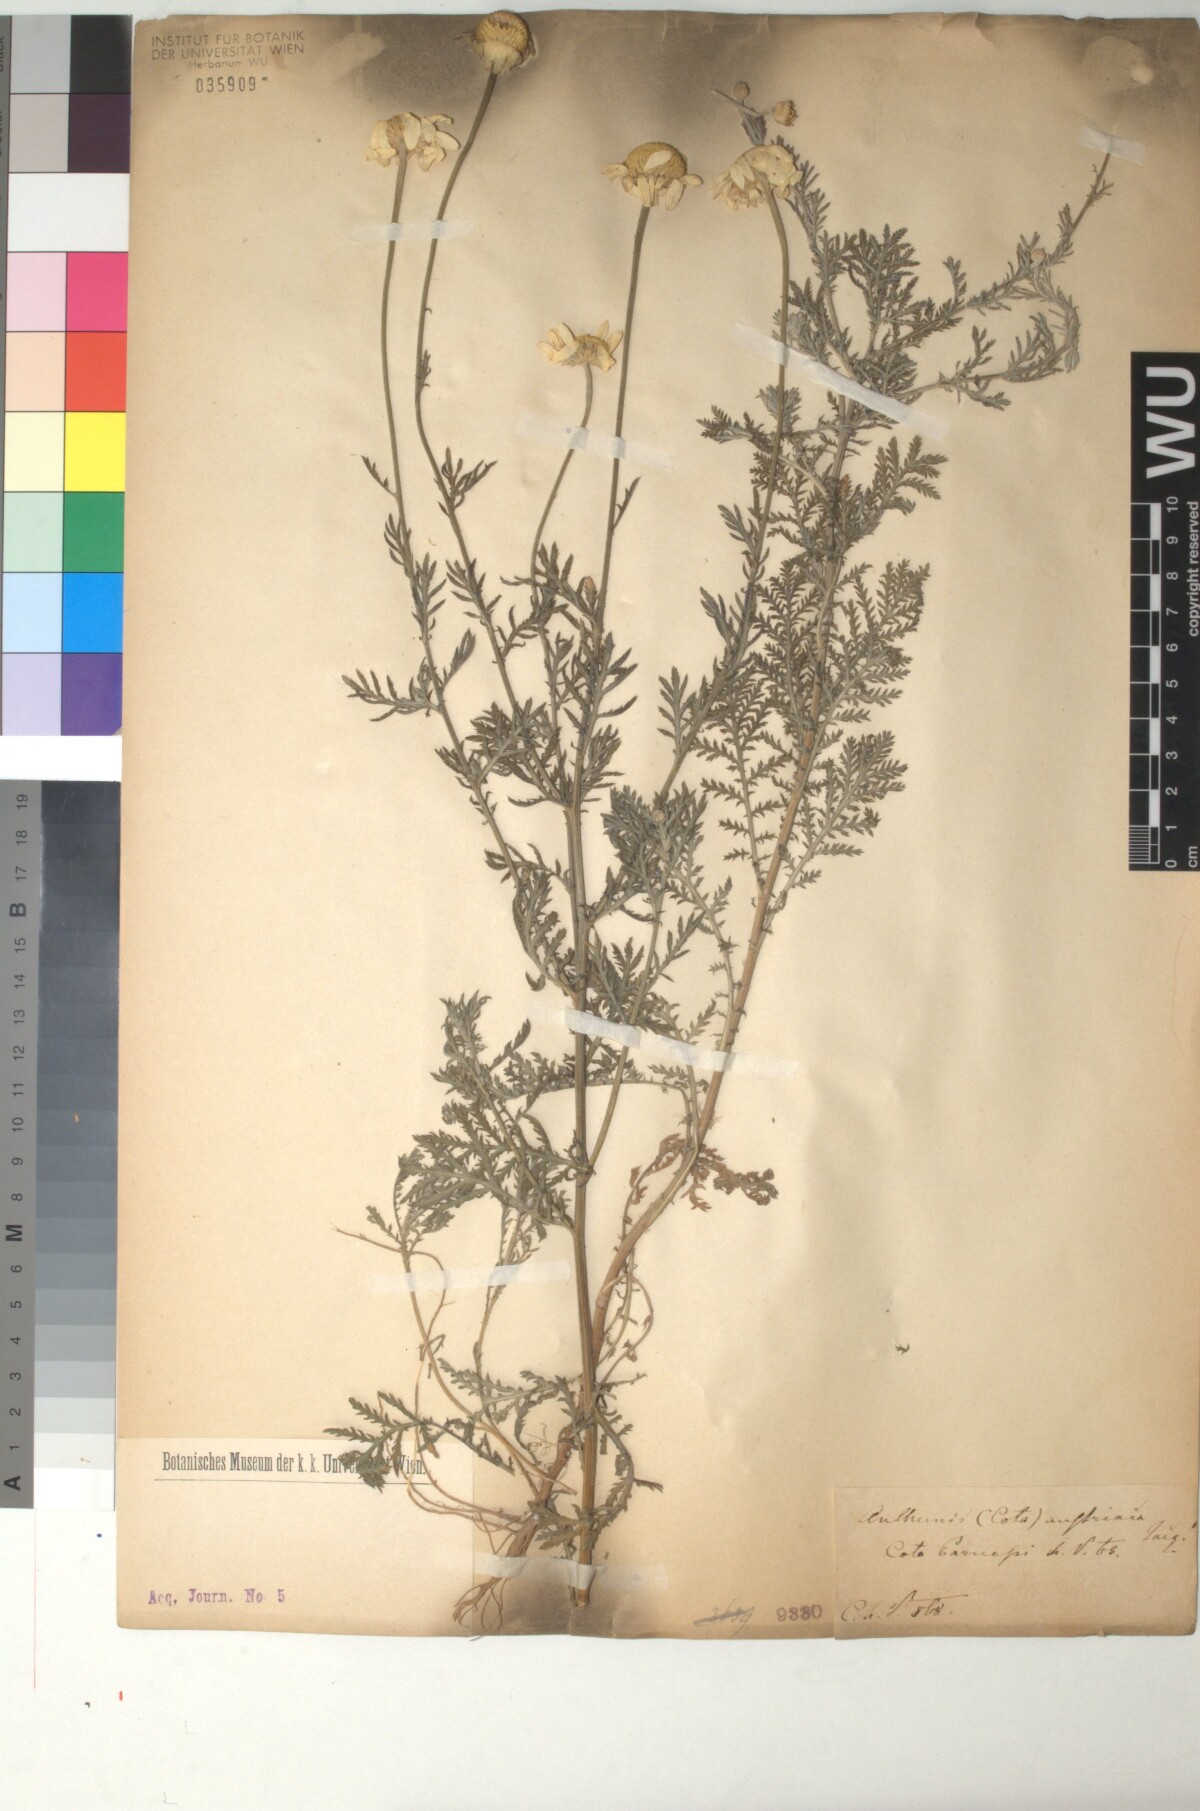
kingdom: Plantae
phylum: Tracheophyta
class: Magnoliopsida
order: Asterales
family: Asteraceae
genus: Cota
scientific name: Cota austriaca
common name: Austrian chamomile
